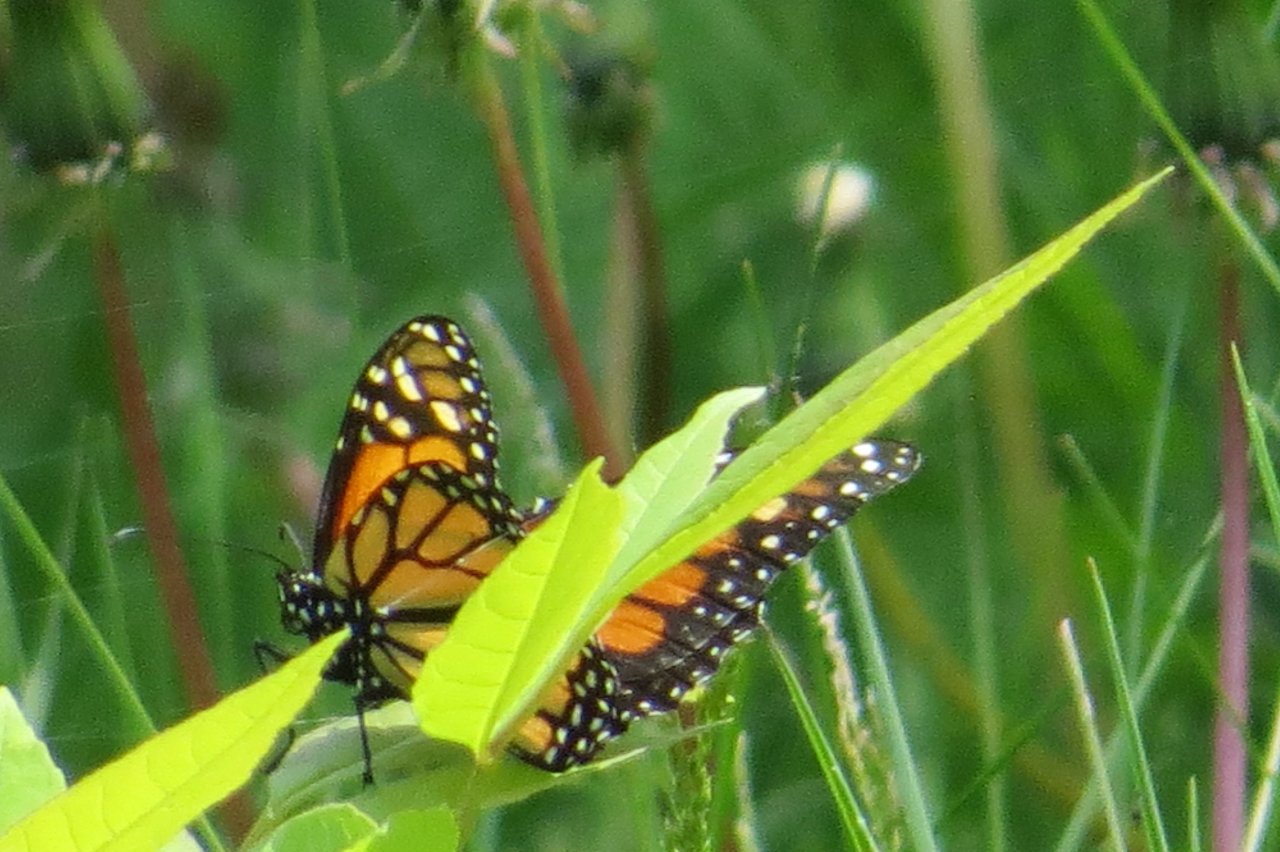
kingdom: Animalia
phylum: Arthropoda
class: Insecta
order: Lepidoptera
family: Nymphalidae
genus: Danaus
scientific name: Danaus plexippus
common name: Monarch
